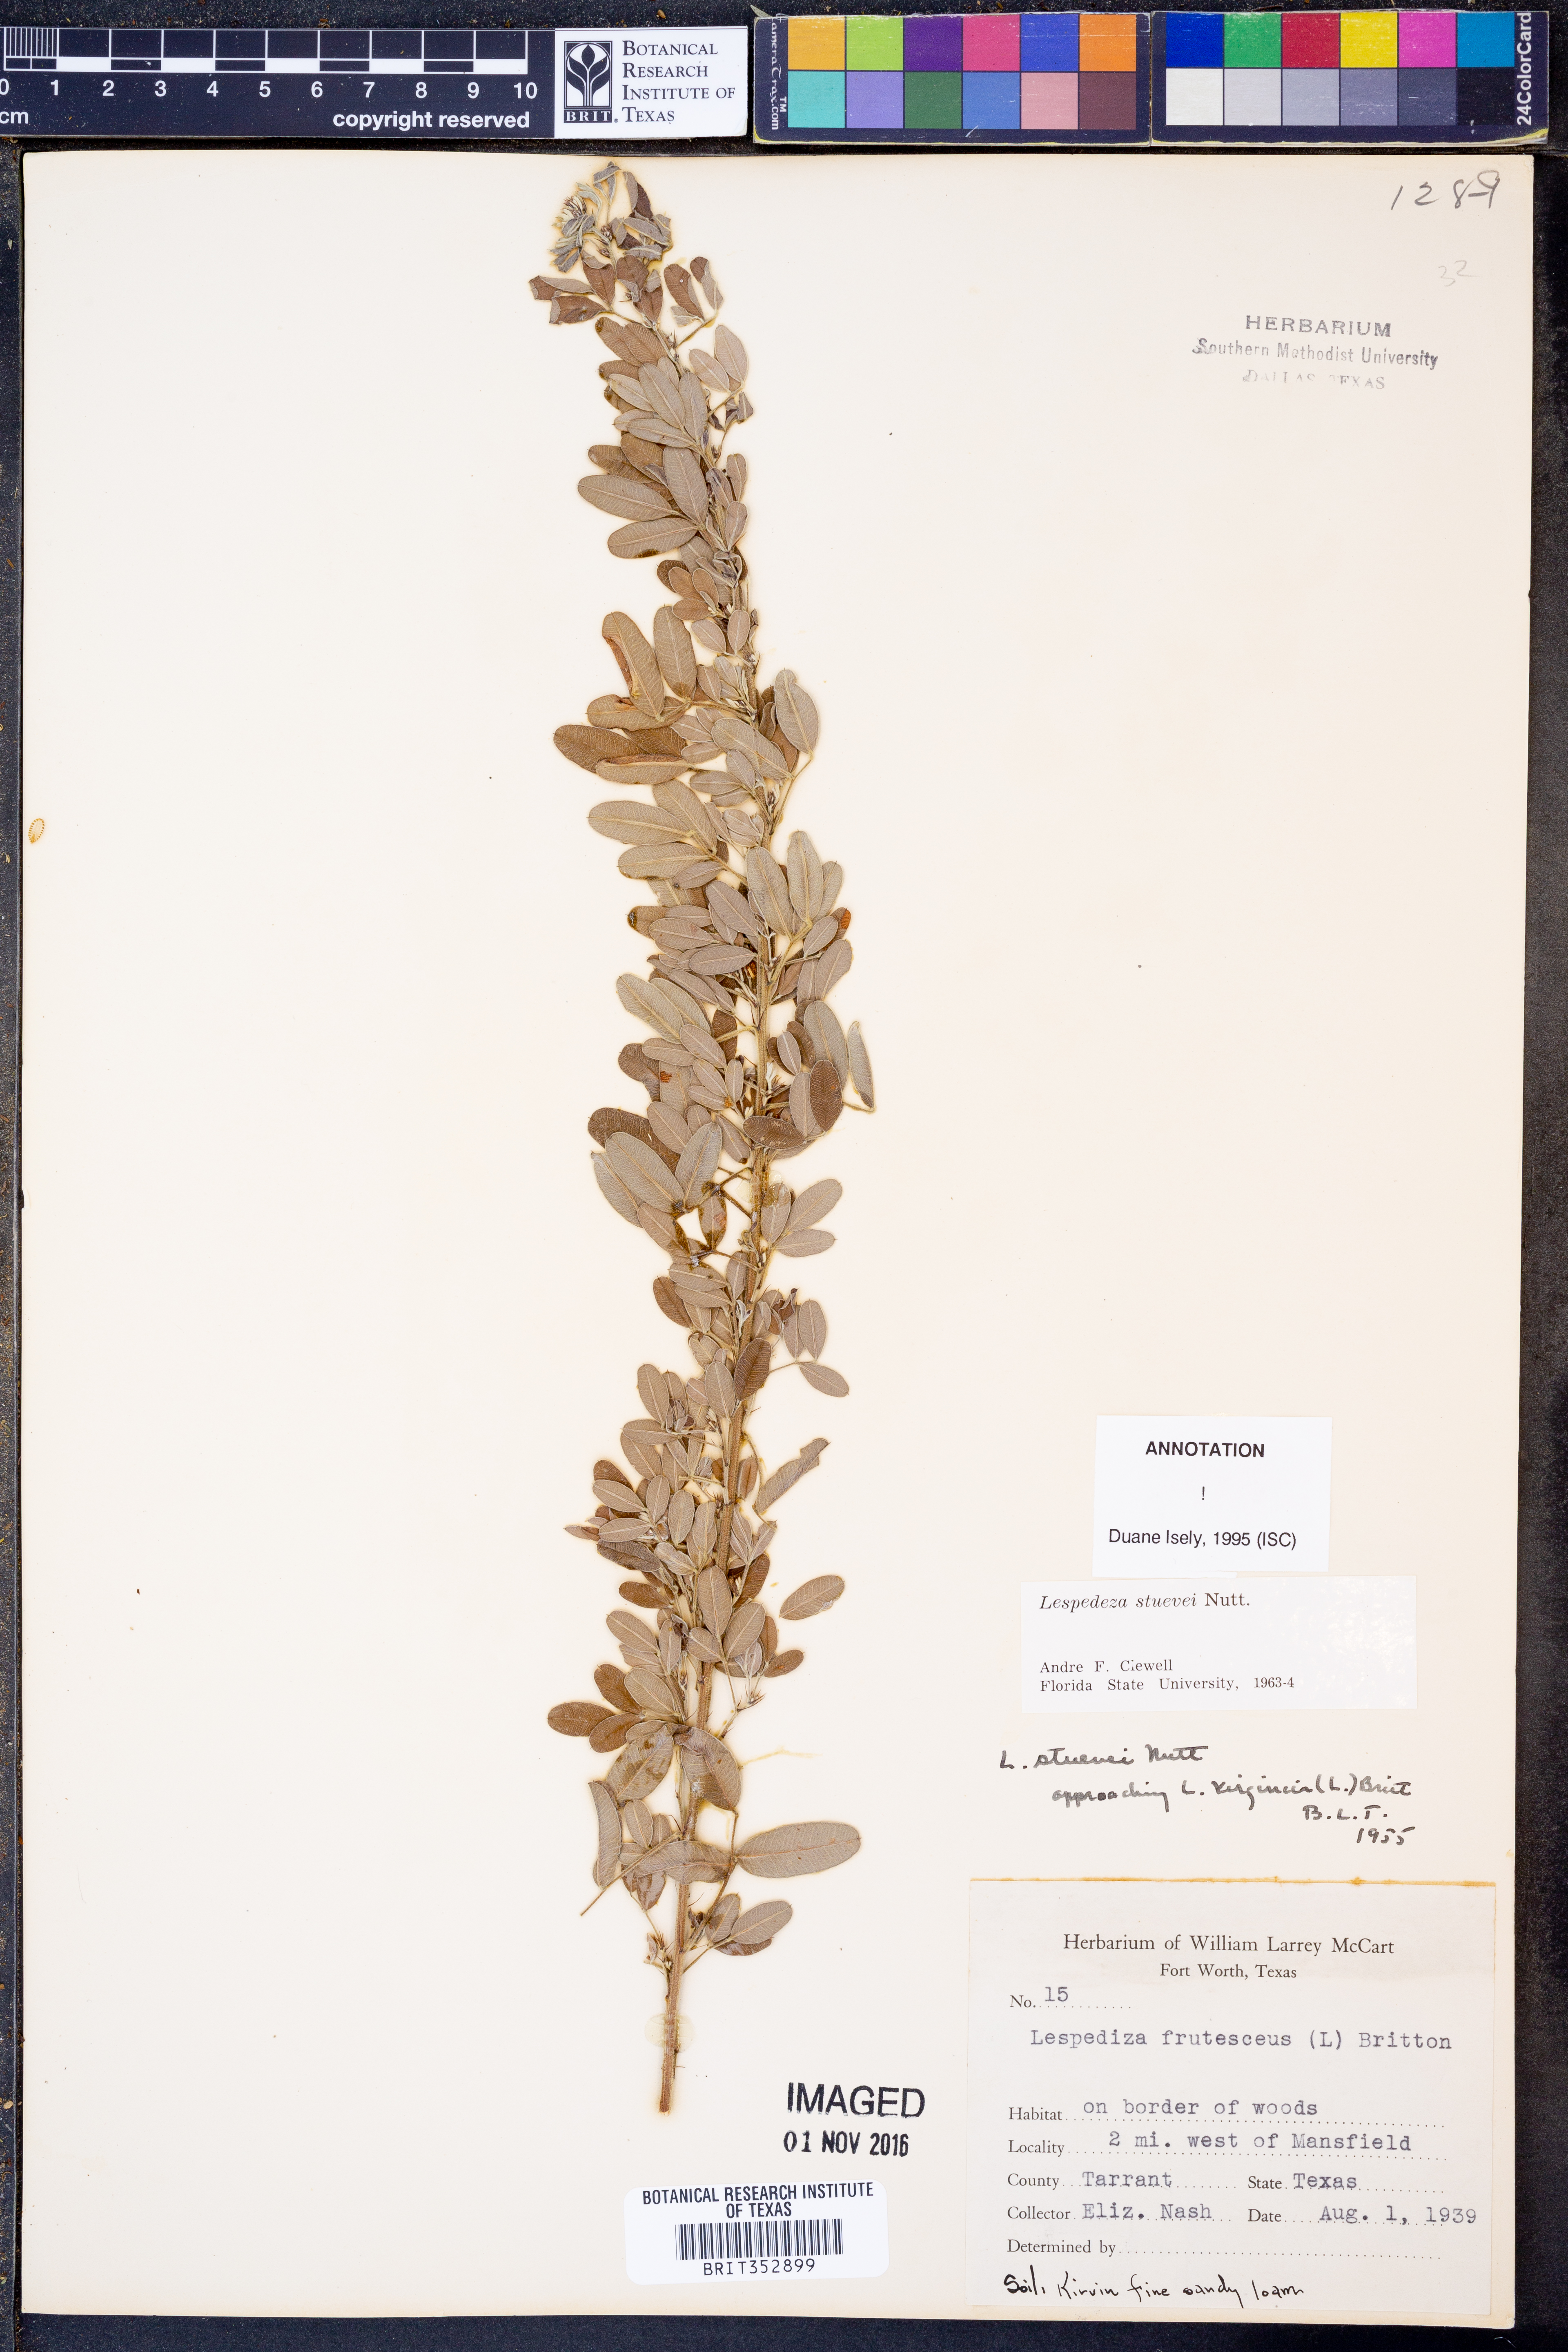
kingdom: Plantae
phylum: Tracheophyta
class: Magnoliopsida
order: Fabales
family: Fabaceae
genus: Lespedeza
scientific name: Lespedeza stuevei
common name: Tall bush-clover
